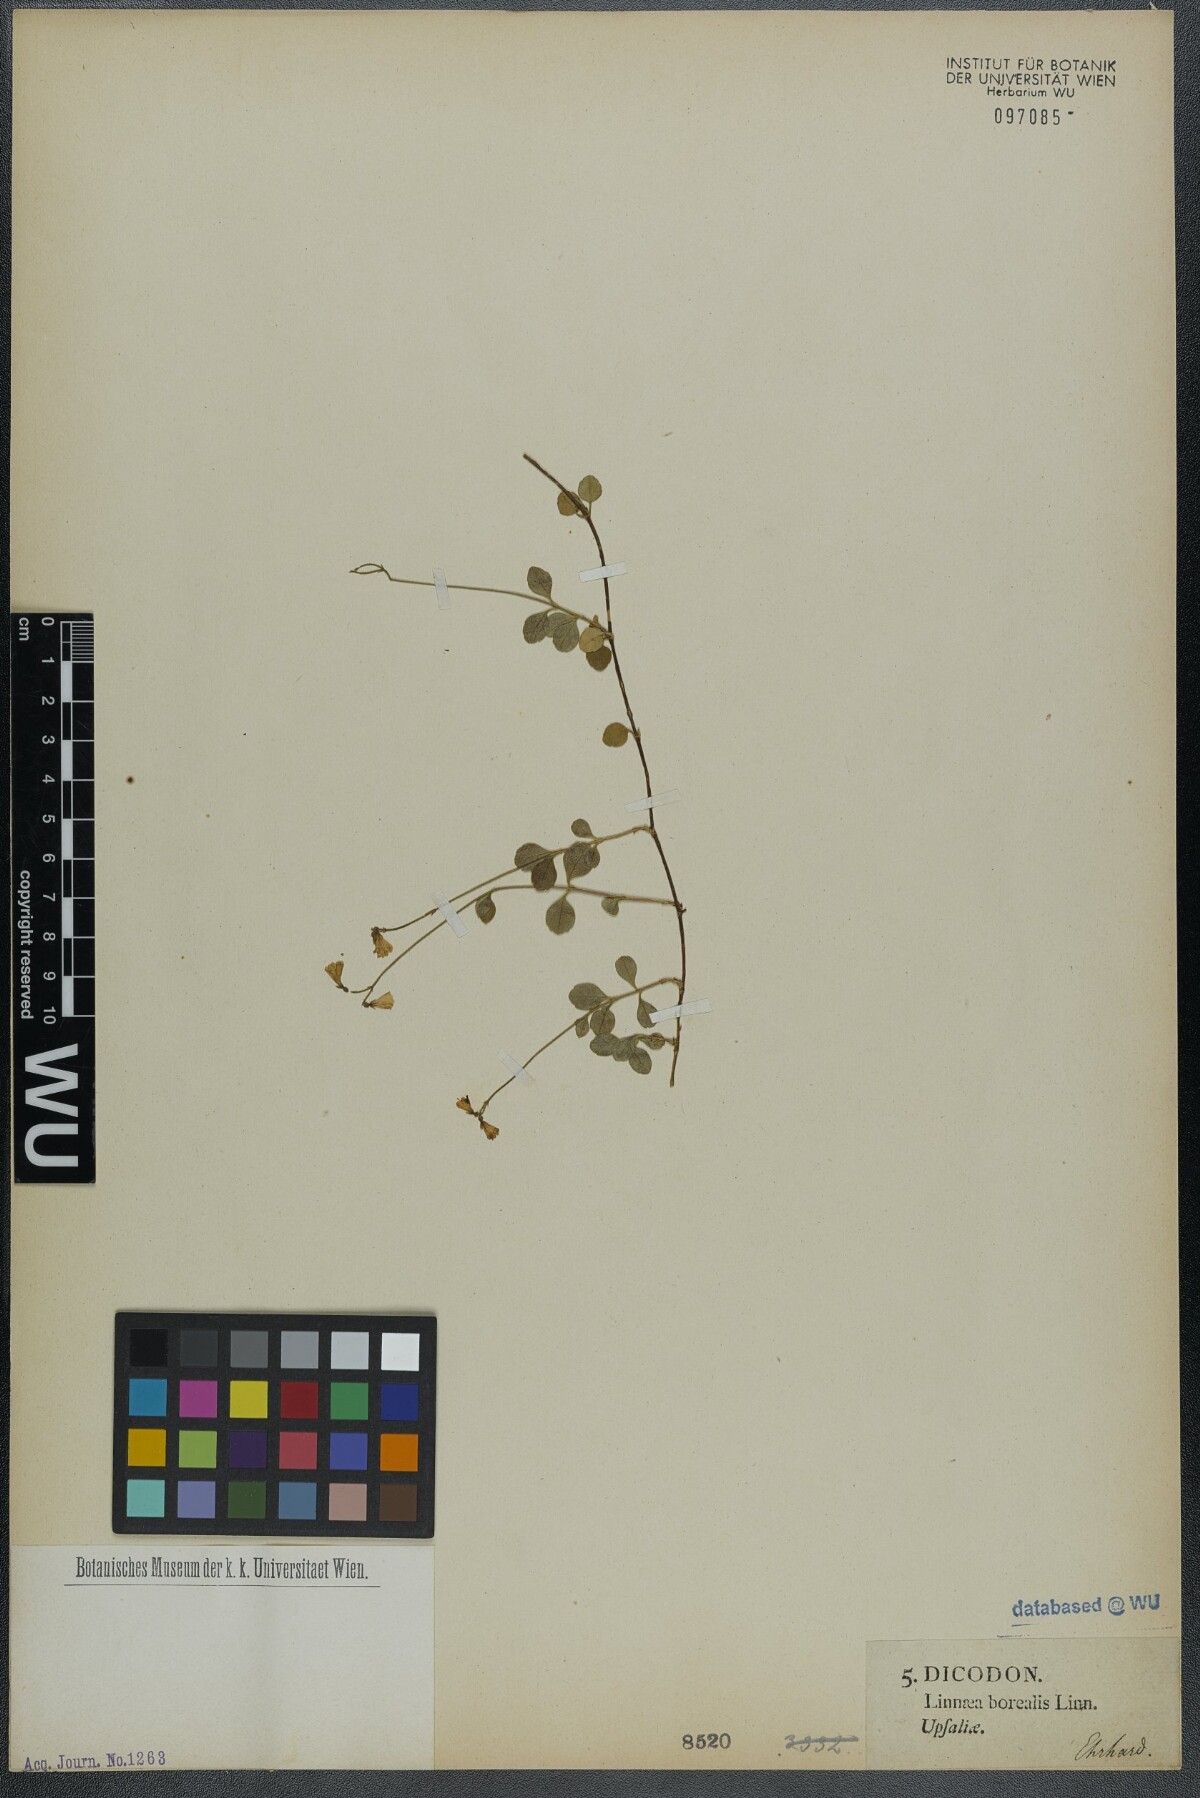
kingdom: Plantae
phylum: Tracheophyta
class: Magnoliopsida
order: Dipsacales
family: Caprifoliaceae
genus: Linnaea
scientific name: Linnaea borealis
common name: Twinflower
